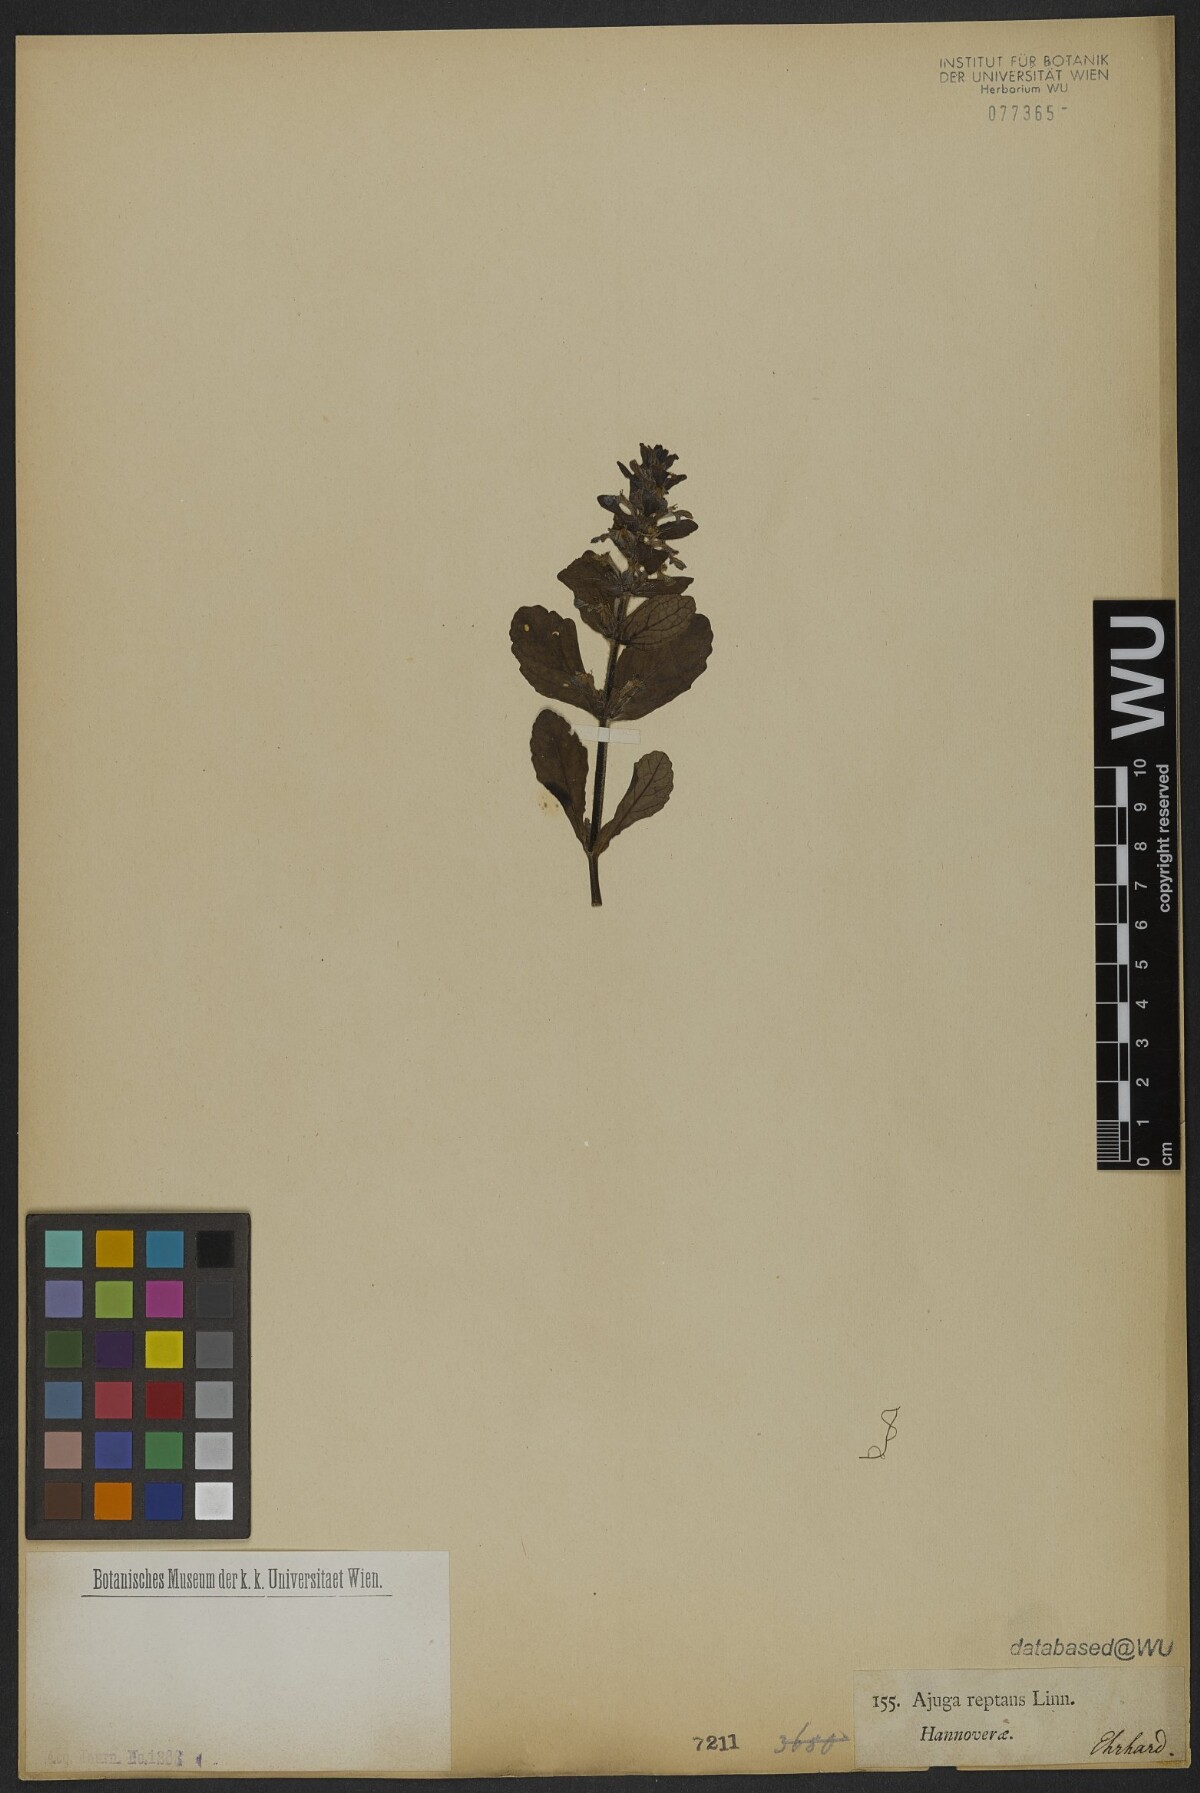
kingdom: Plantae
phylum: Tracheophyta
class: Magnoliopsida
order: Lamiales
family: Lamiaceae
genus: Ajuga
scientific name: Ajuga reptans
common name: Bugle
